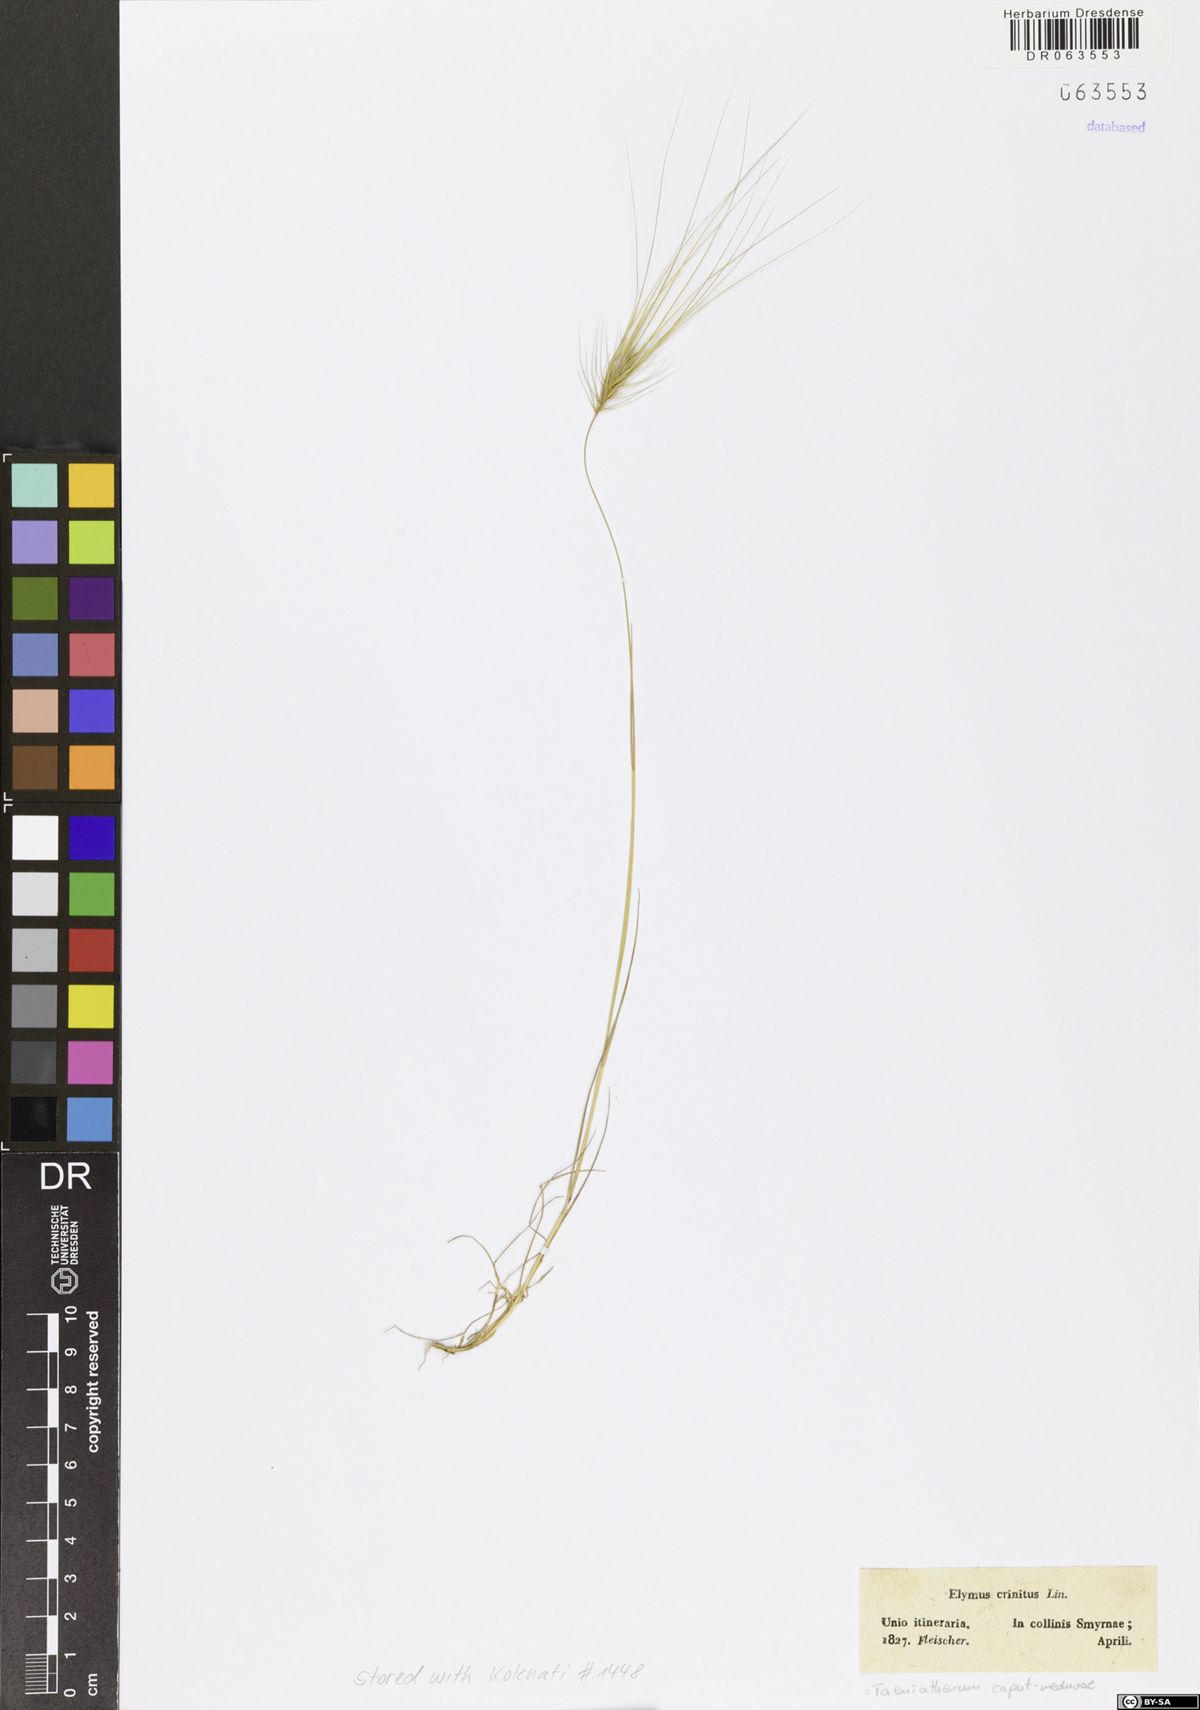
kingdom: Plantae
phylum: Tracheophyta
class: Liliopsida
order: Poales
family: Poaceae
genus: Taeniatherum
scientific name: Taeniatherum caput-medusae
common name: Medusahead
